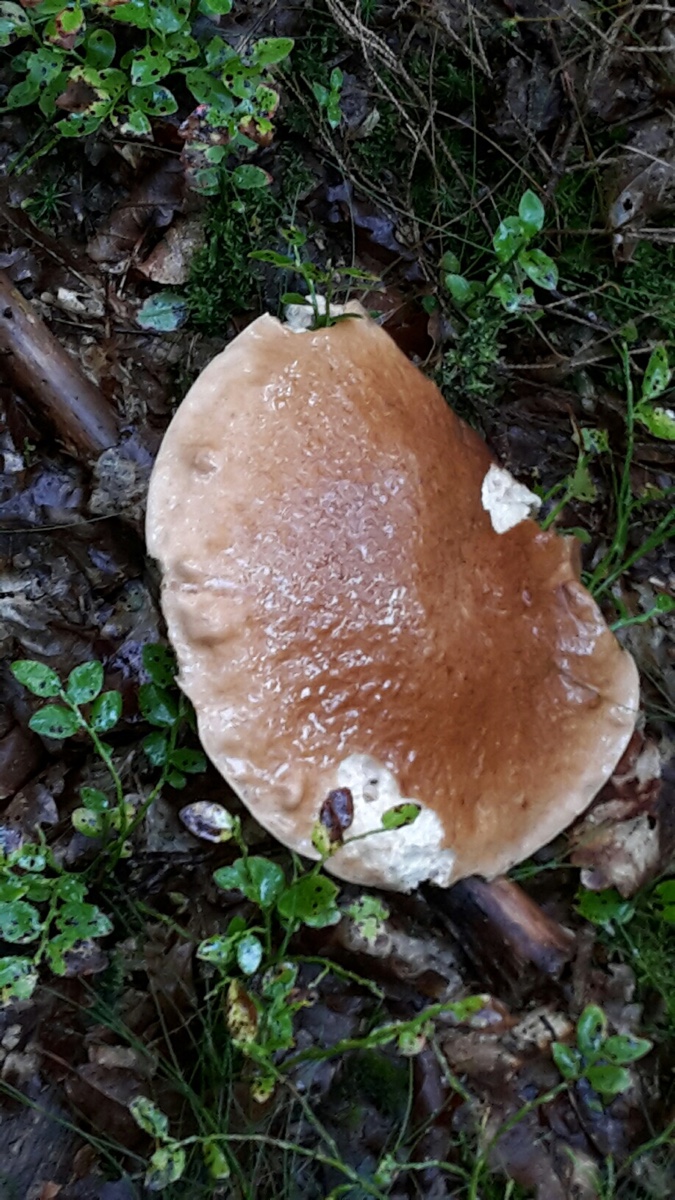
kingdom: Fungi
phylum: Basidiomycota
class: Agaricomycetes
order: Boletales
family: Boletaceae
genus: Boletus
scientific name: Boletus edulis
